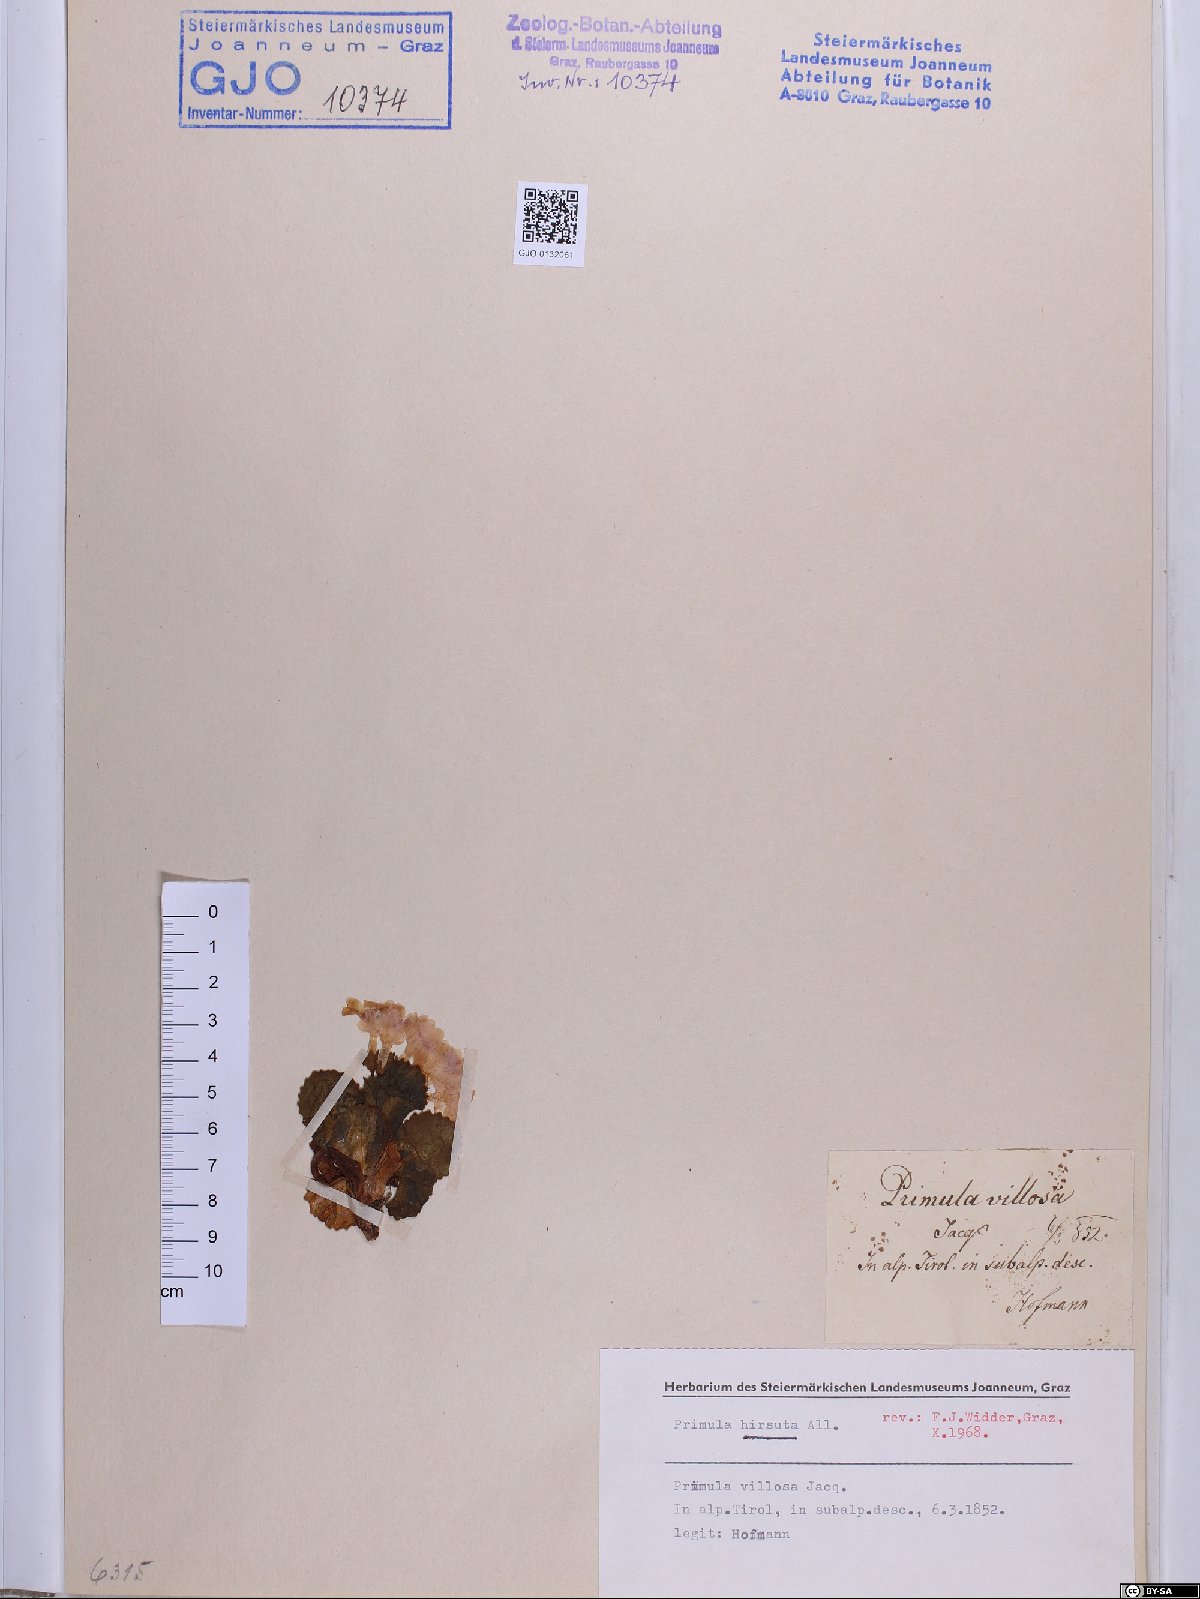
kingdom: Plantae
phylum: Tracheophyta
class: Magnoliopsida
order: Ericales
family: Primulaceae
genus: Primula
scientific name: Primula hirsuta
